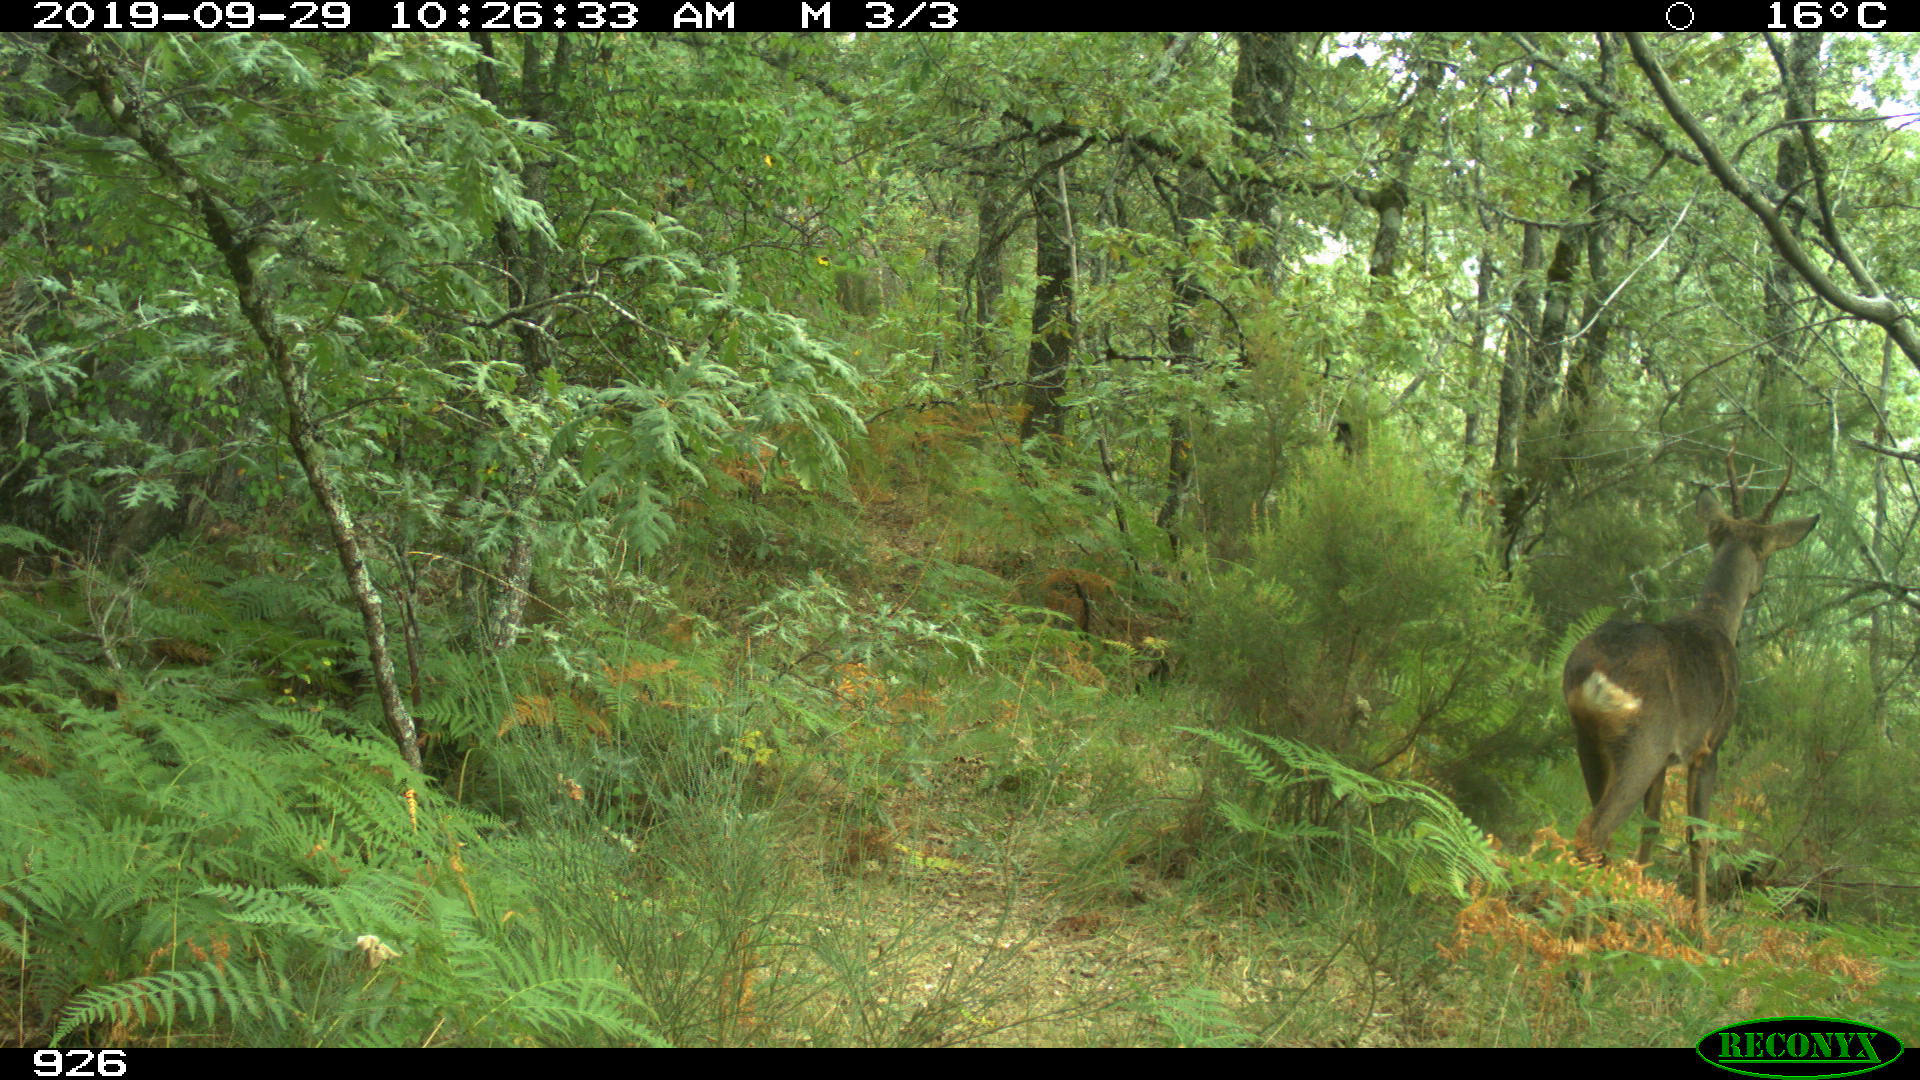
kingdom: Animalia
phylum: Chordata
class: Mammalia
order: Artiodactyla
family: Cervidae
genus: Capreolus
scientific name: Capreolus capreolus
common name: Western roe deer
